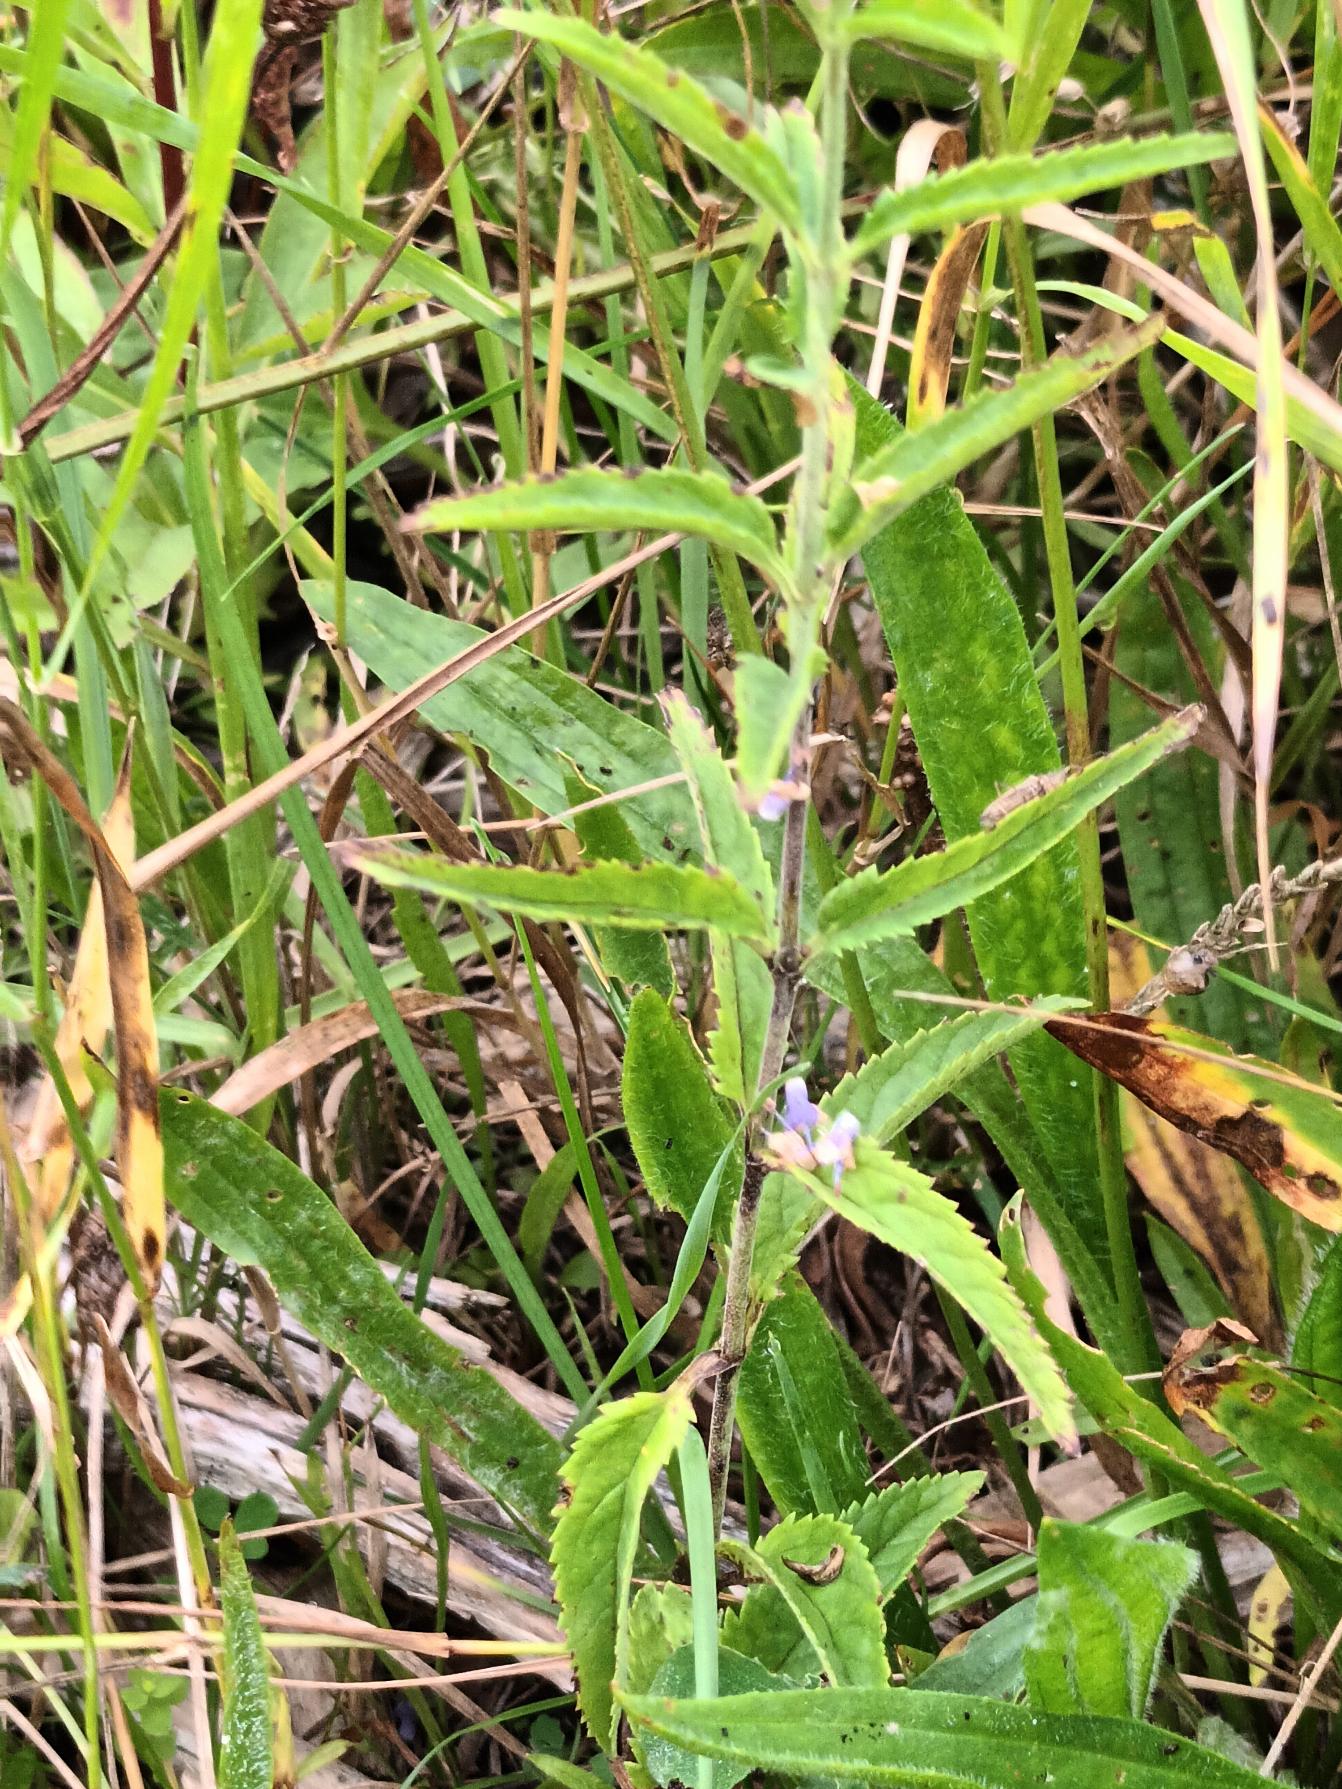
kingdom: Plantae
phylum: Tracheophyta
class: Magnoliopsida
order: Lamiales
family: Plantaginaceae
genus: Veronica
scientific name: Veronica longifolia
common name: Langbladet ærenpris
